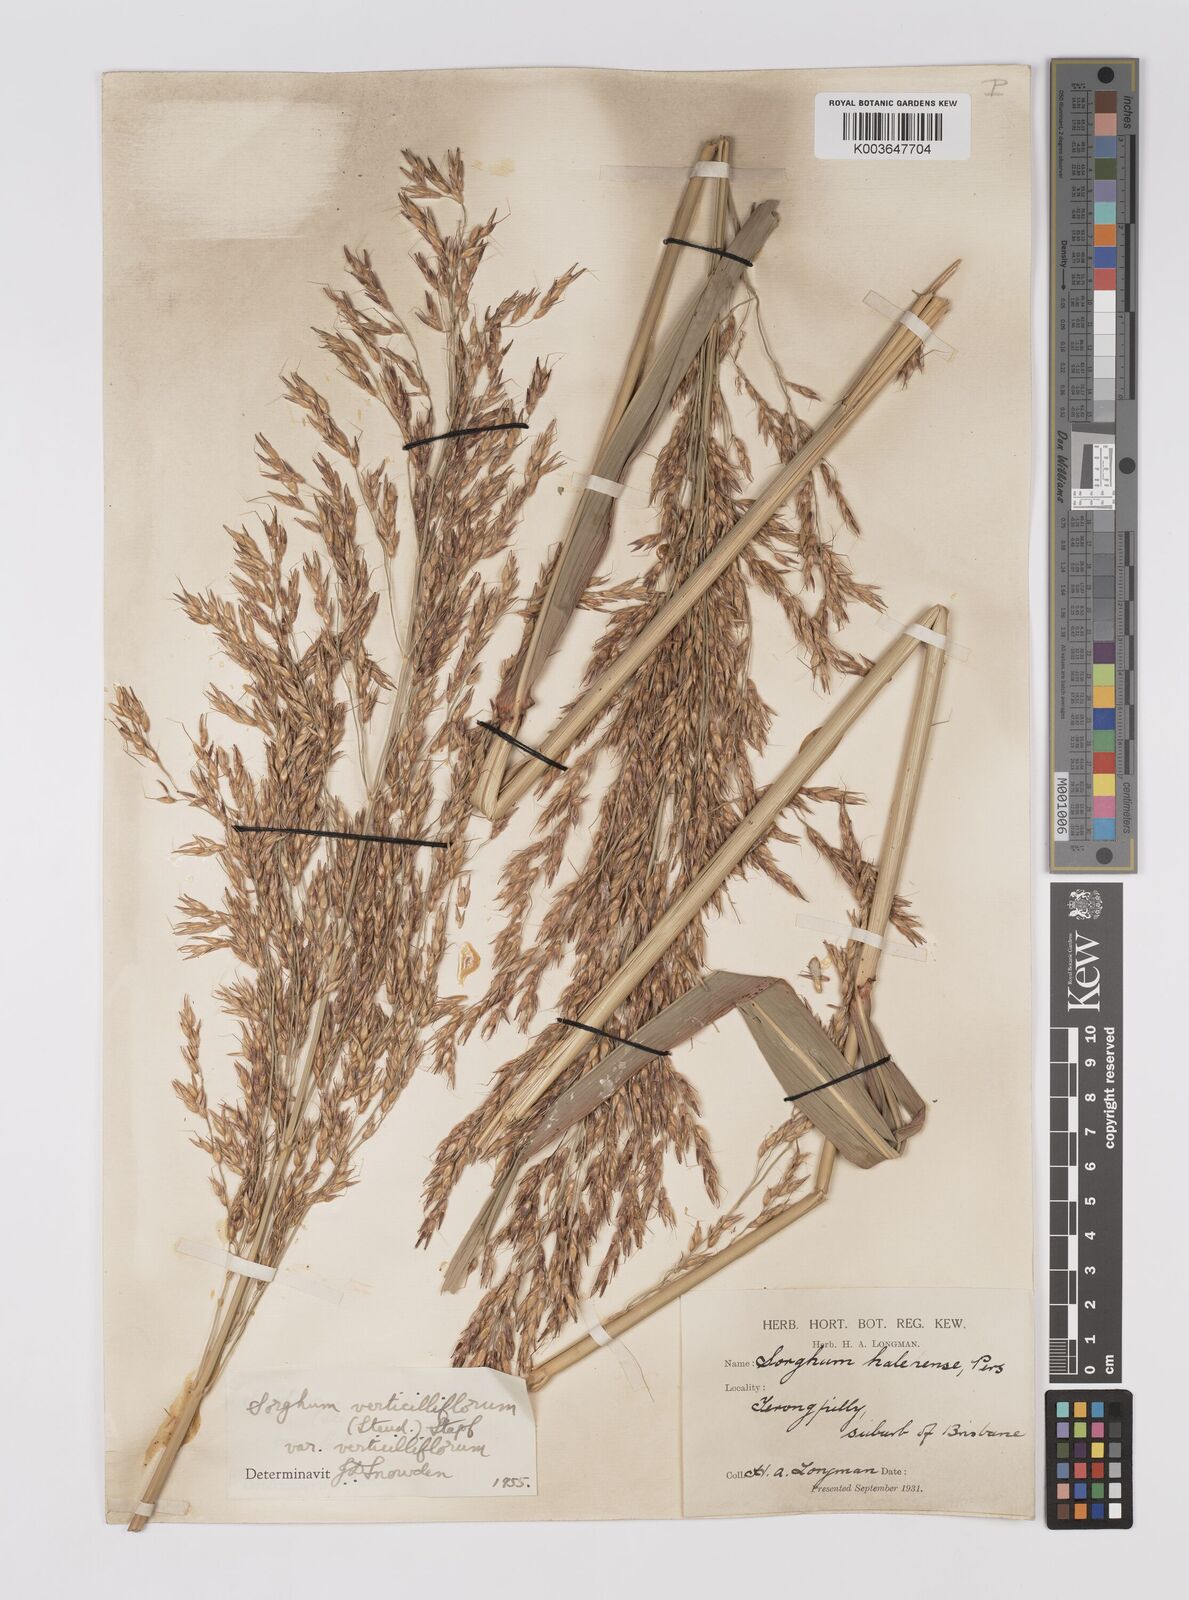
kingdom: Plantae
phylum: Tracheophyta
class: Liliopsida
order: Poales
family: Poaceae
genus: Sorghum
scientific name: Sorghum arundinaceum
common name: Sorghum
